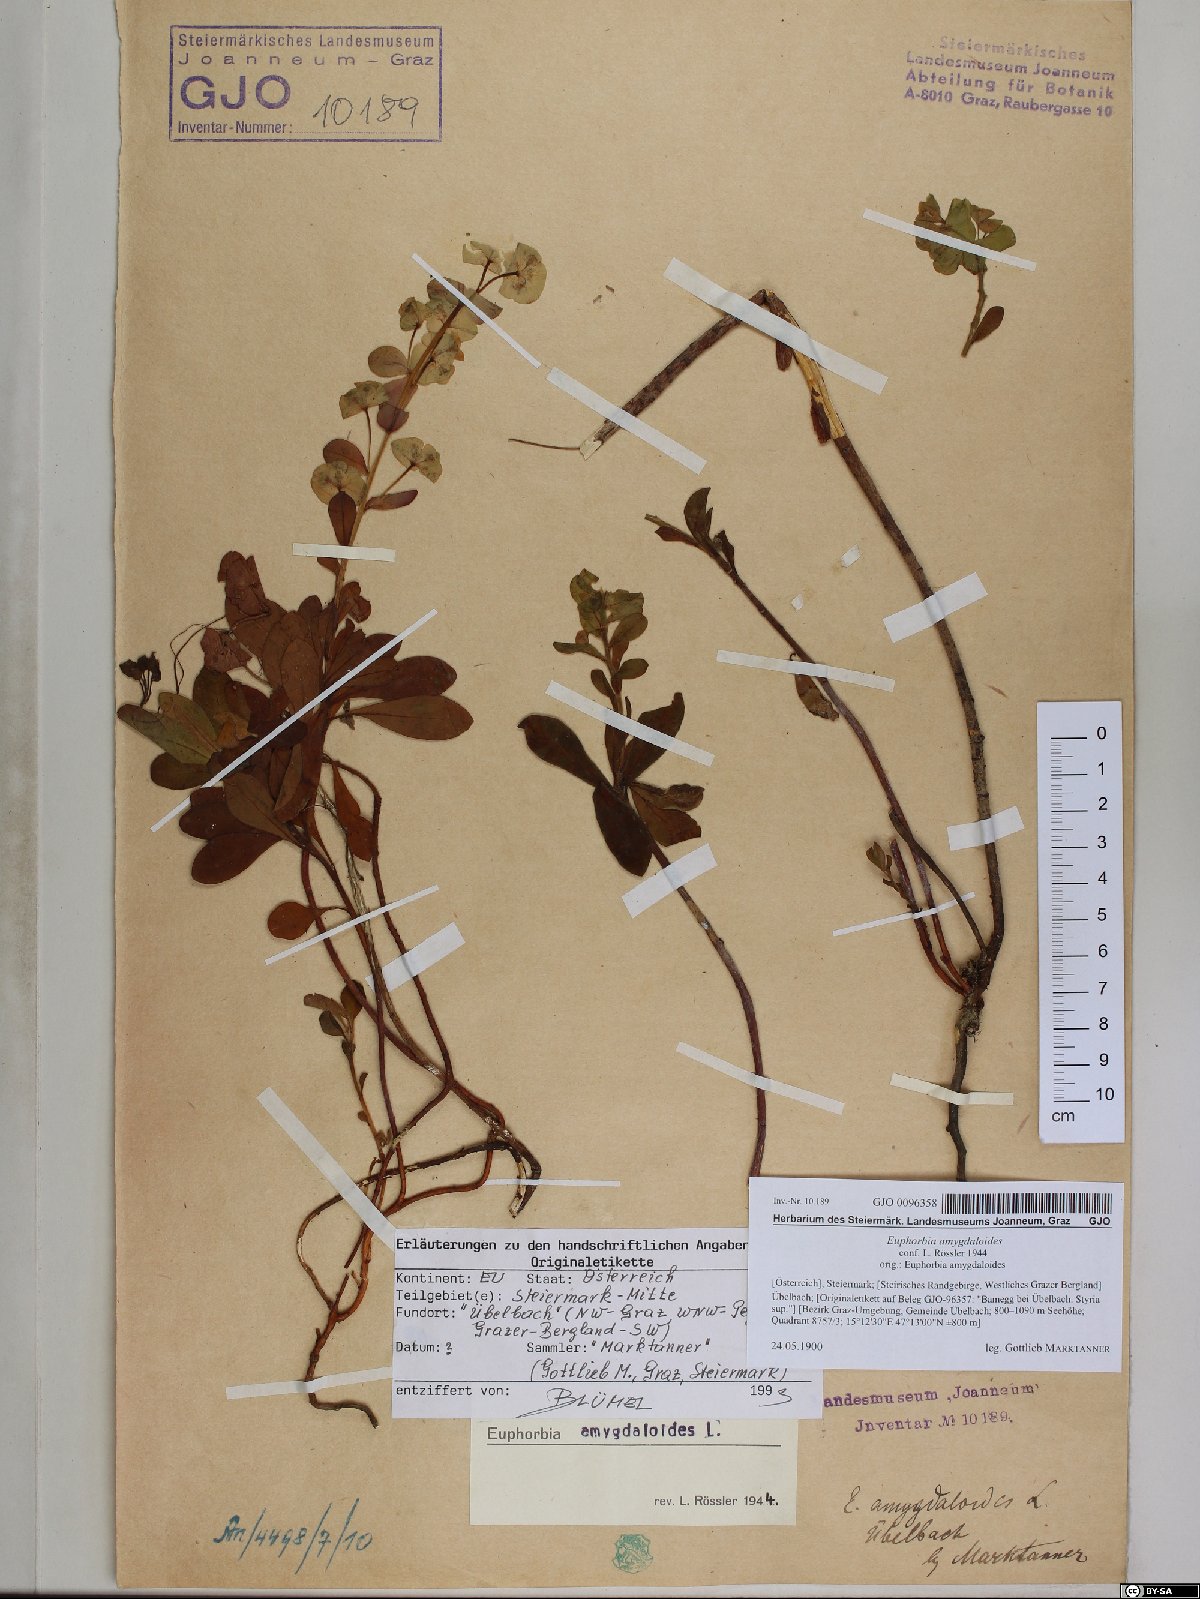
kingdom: Plantae
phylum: Tracheophyta
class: Magnoliopsida
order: Malpighiales
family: Euphorbiaceae
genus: Euphorbia
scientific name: Euphorbia amygdaloides
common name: Wood spurge
